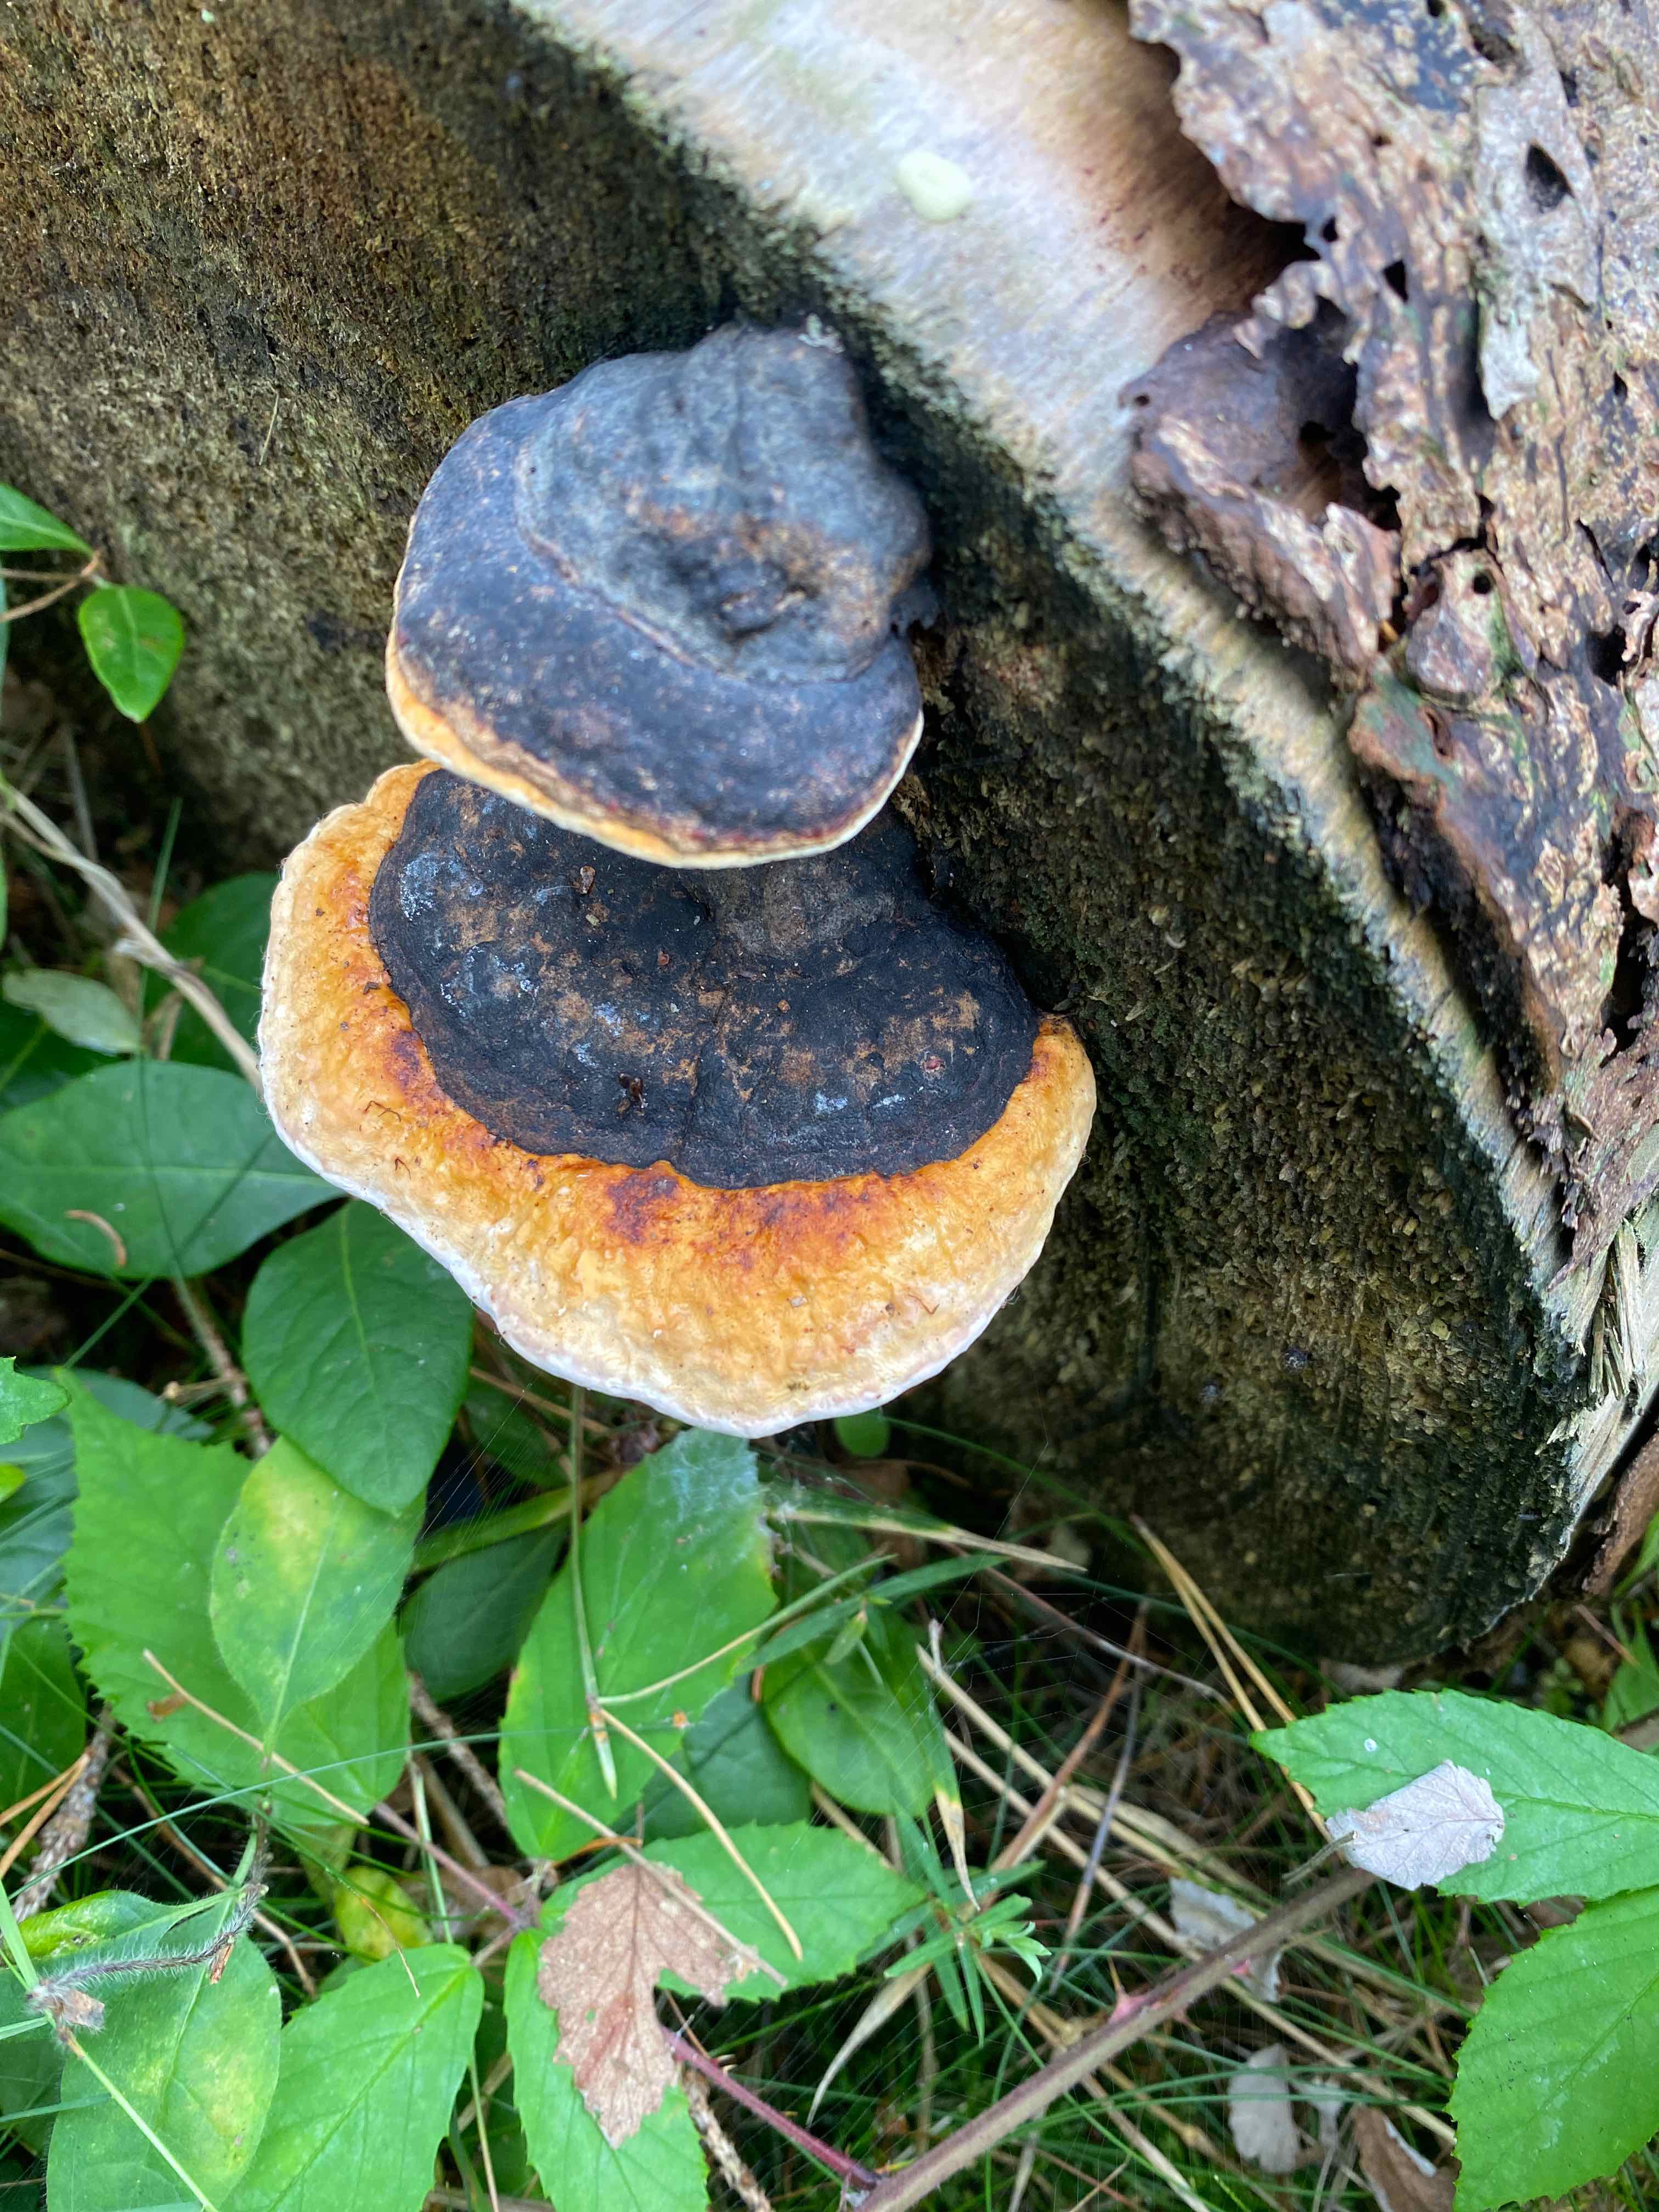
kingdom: Fungi
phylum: Basidiomycota
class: Agaricomycetes
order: Polyporales
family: Fomitopsidaceae
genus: Fomitopsis
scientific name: Fomitopsis pinicola
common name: randbæltet hovporesvamp
